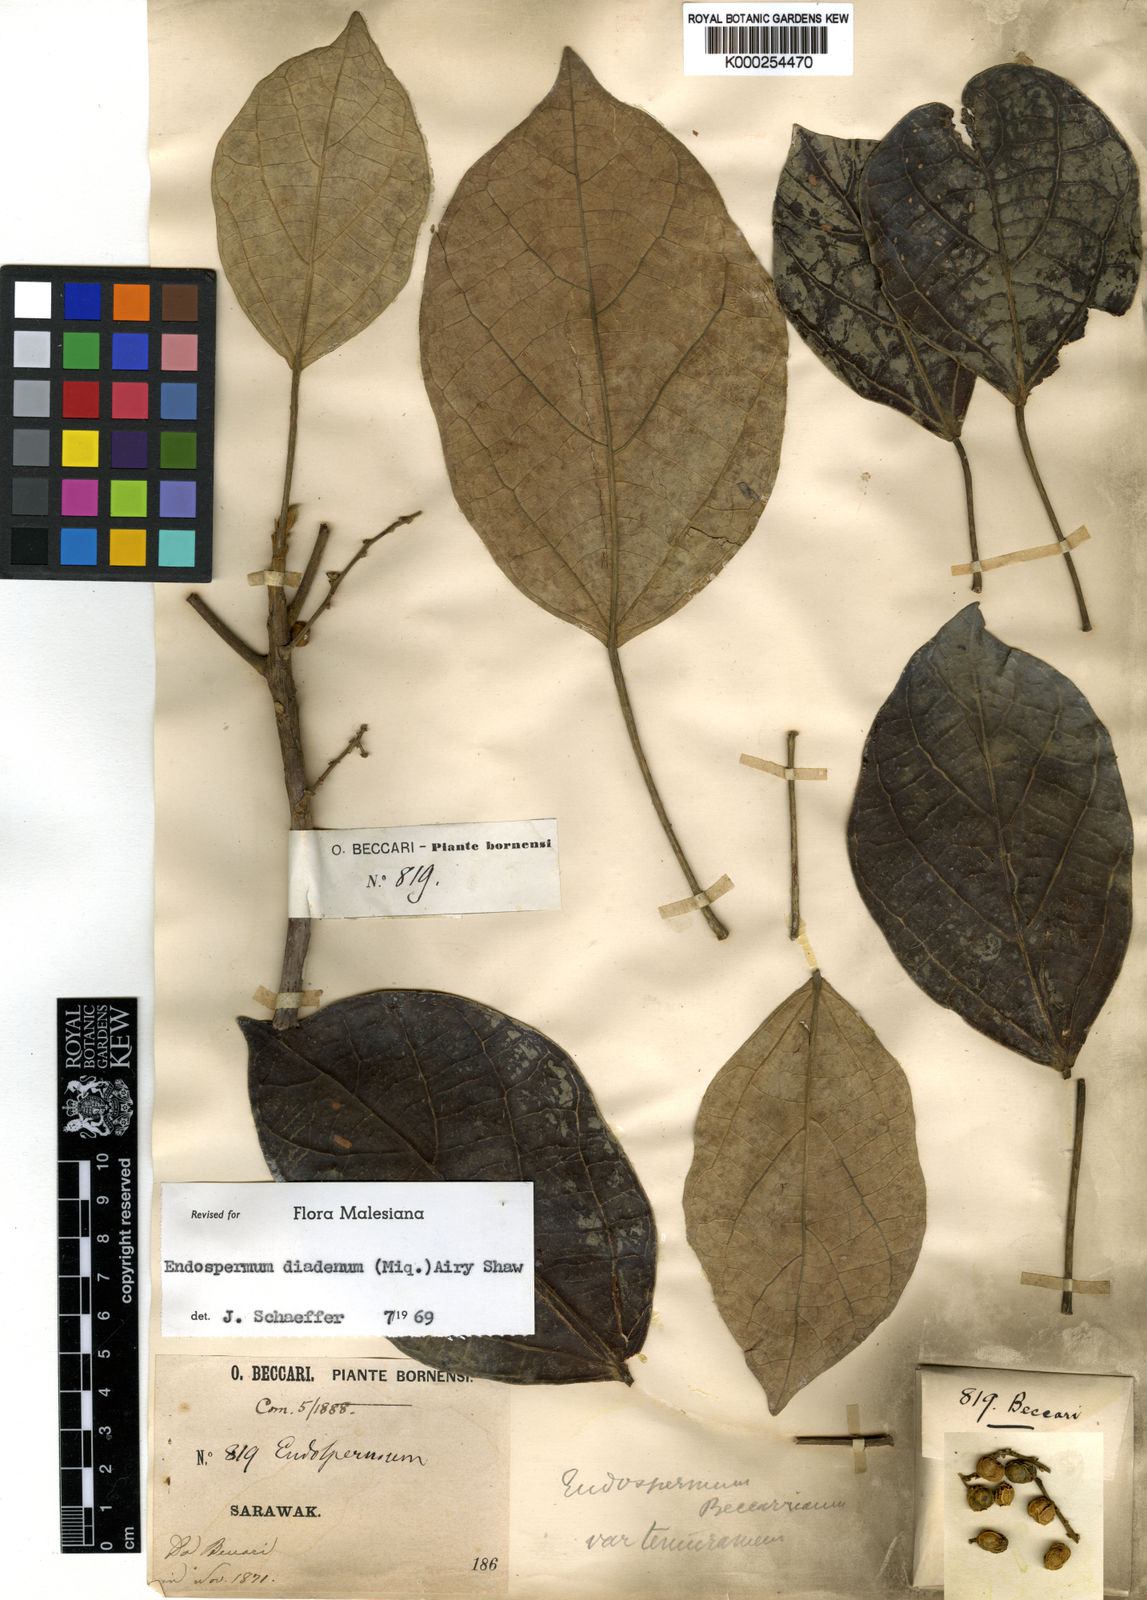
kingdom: Plantae
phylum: Tracheophyta
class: Magnoliopsida
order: Malpighiales
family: Euphorbiaceae
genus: Endospermum
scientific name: Endospermum diadenum
